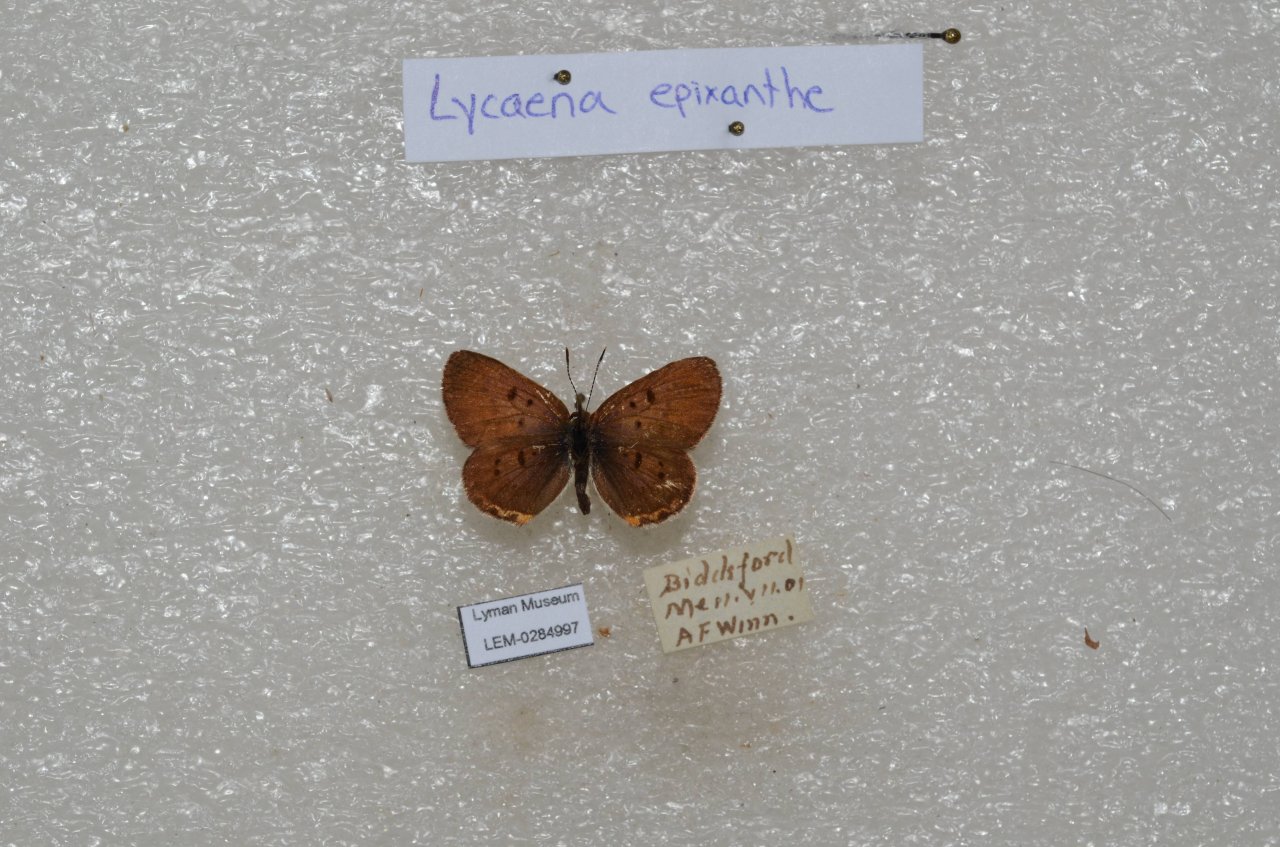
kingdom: Animalia
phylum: Arthropoda
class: Insecta
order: Lepidoptera
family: Sesiidae
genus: Sesia
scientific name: Sesia Lycaena epixanthe
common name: Bog Copper
